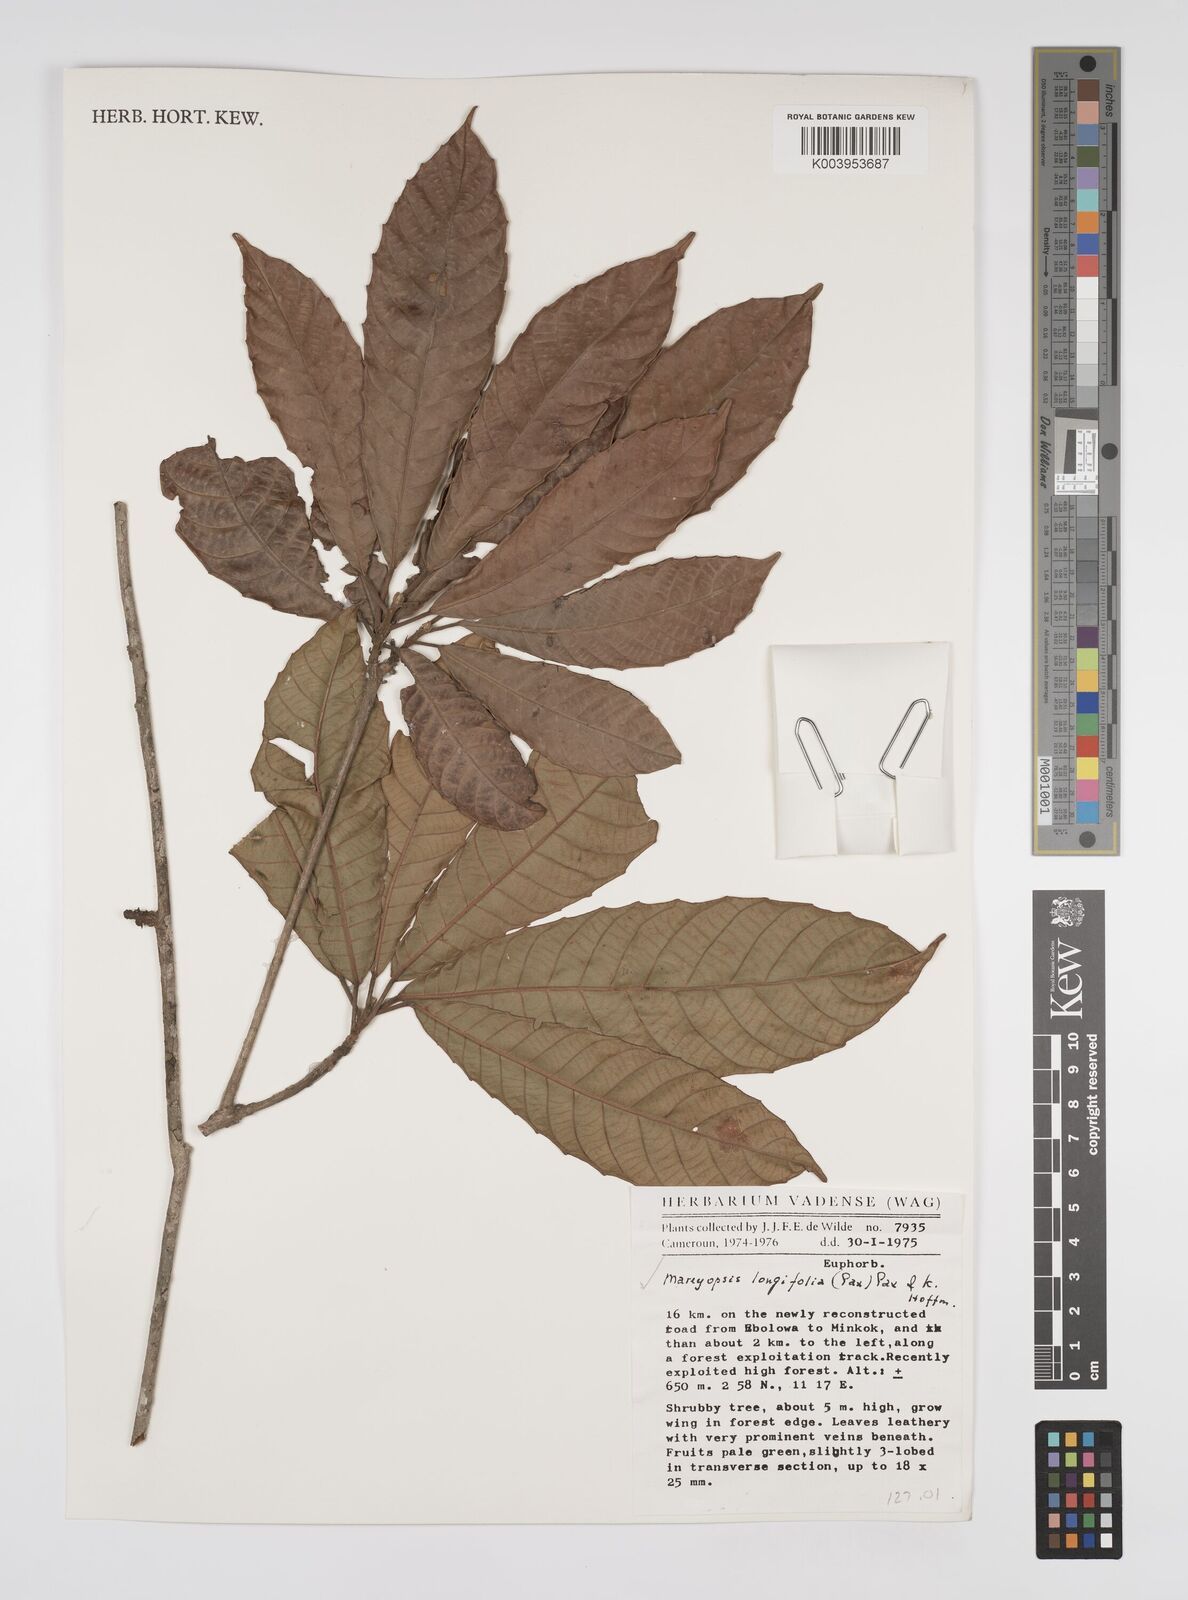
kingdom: Plantae
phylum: Tracheophyta
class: Magnoliopsida
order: Malpighiales
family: Euphorbiaceae
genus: Mareyopsis
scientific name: Mareyopsis longifolia
